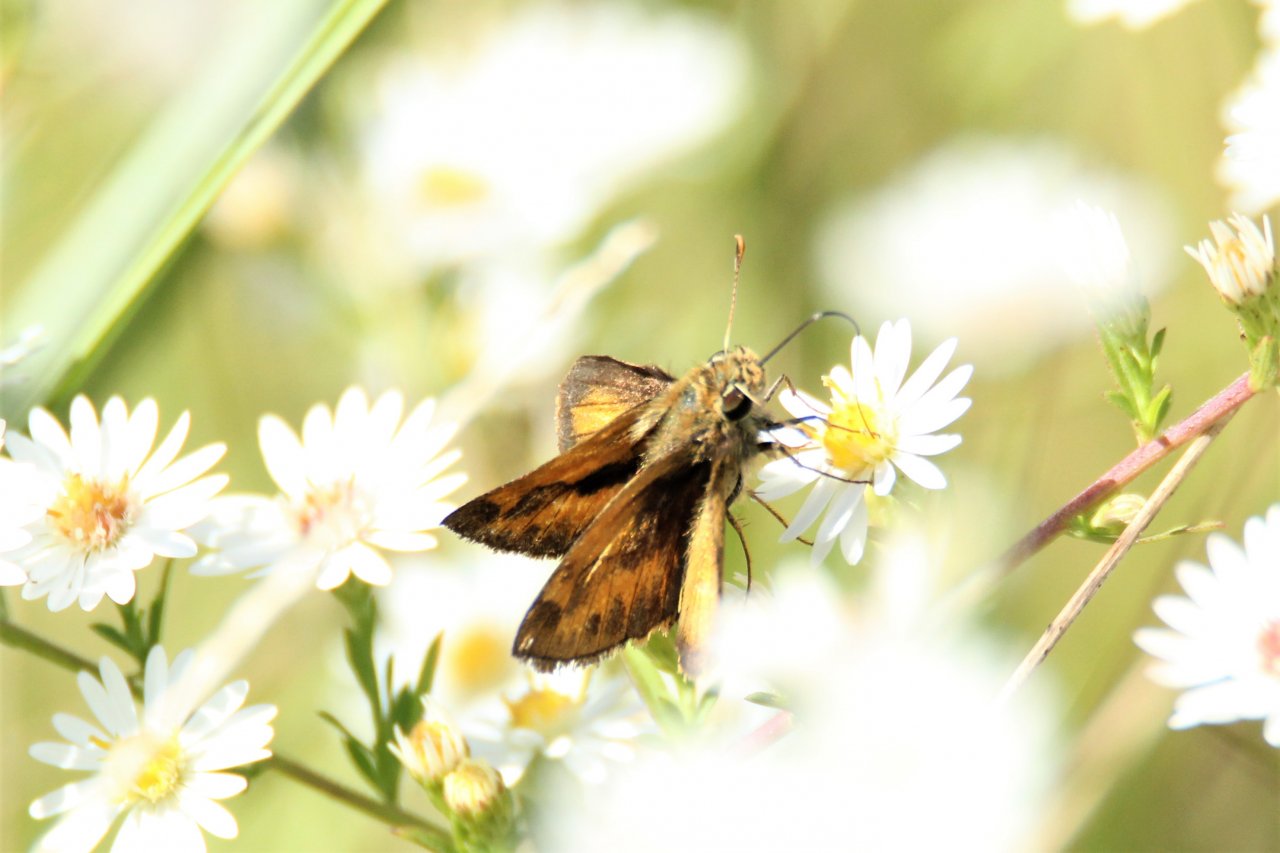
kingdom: Animalia
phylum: Arthropoda
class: Insecta
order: Lepidoptera
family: Hesperiidae
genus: Polites
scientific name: Polites vibex
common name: Whirlabout
